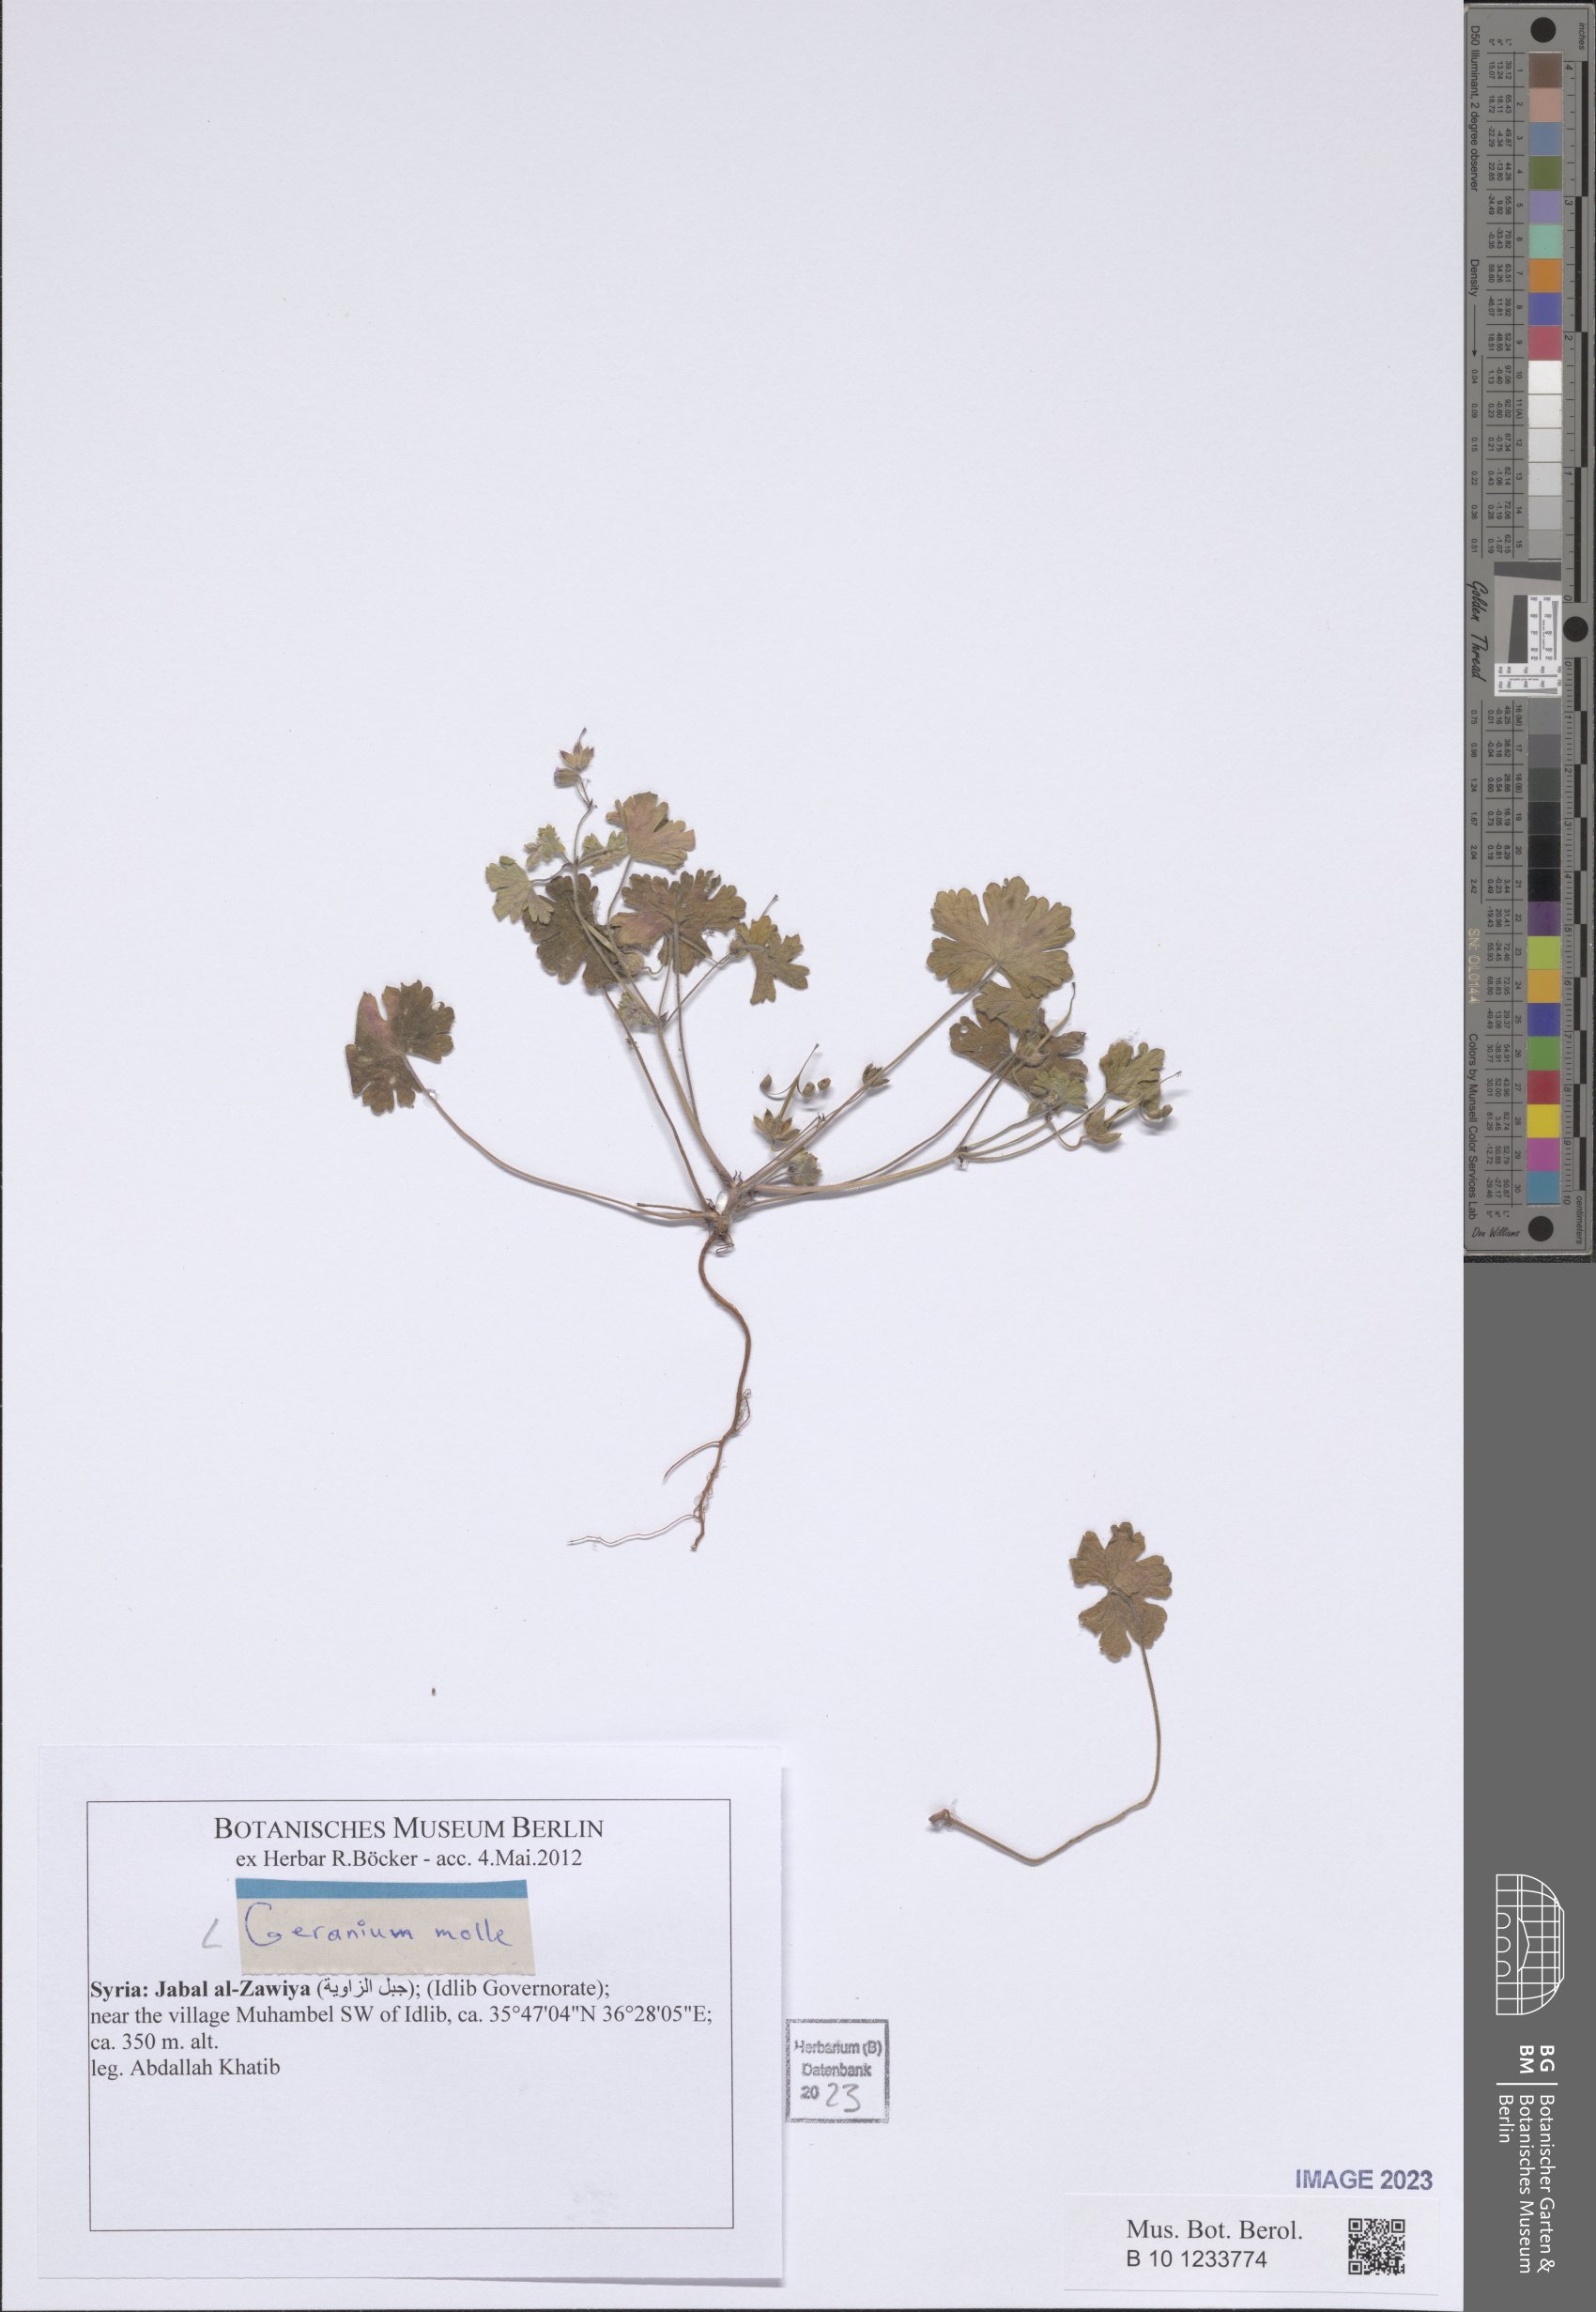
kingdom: Plantae
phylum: Tracheophyta
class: Magnoliopsida
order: Geraniales
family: Geraniaceae
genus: Geranium
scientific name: Geranium molle
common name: Dove's-foot crane's-bill
